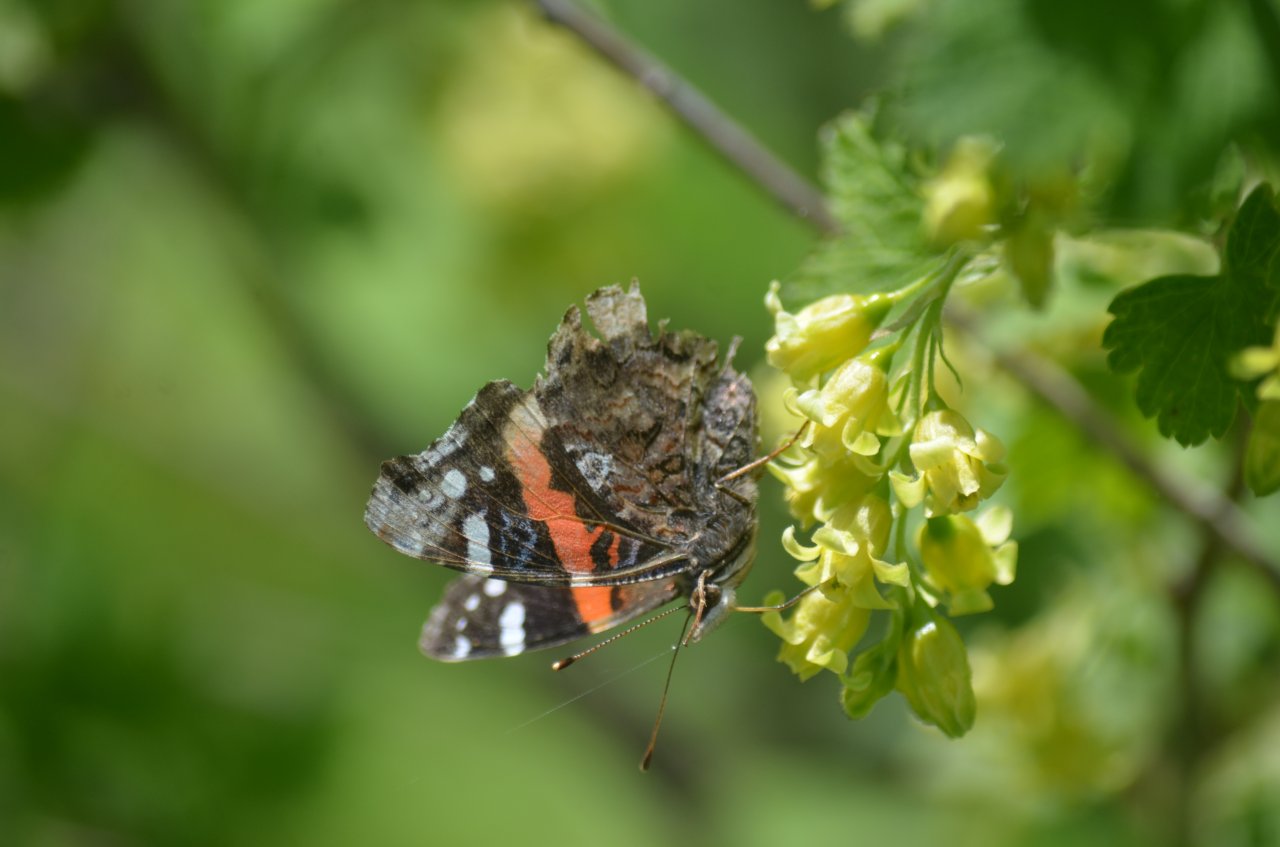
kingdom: Animalia
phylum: Arthropoda
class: Insecta
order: Lepidoptera
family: Nymphalidae
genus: Vanessa
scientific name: Vanessa atalanta
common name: Red Admiral
